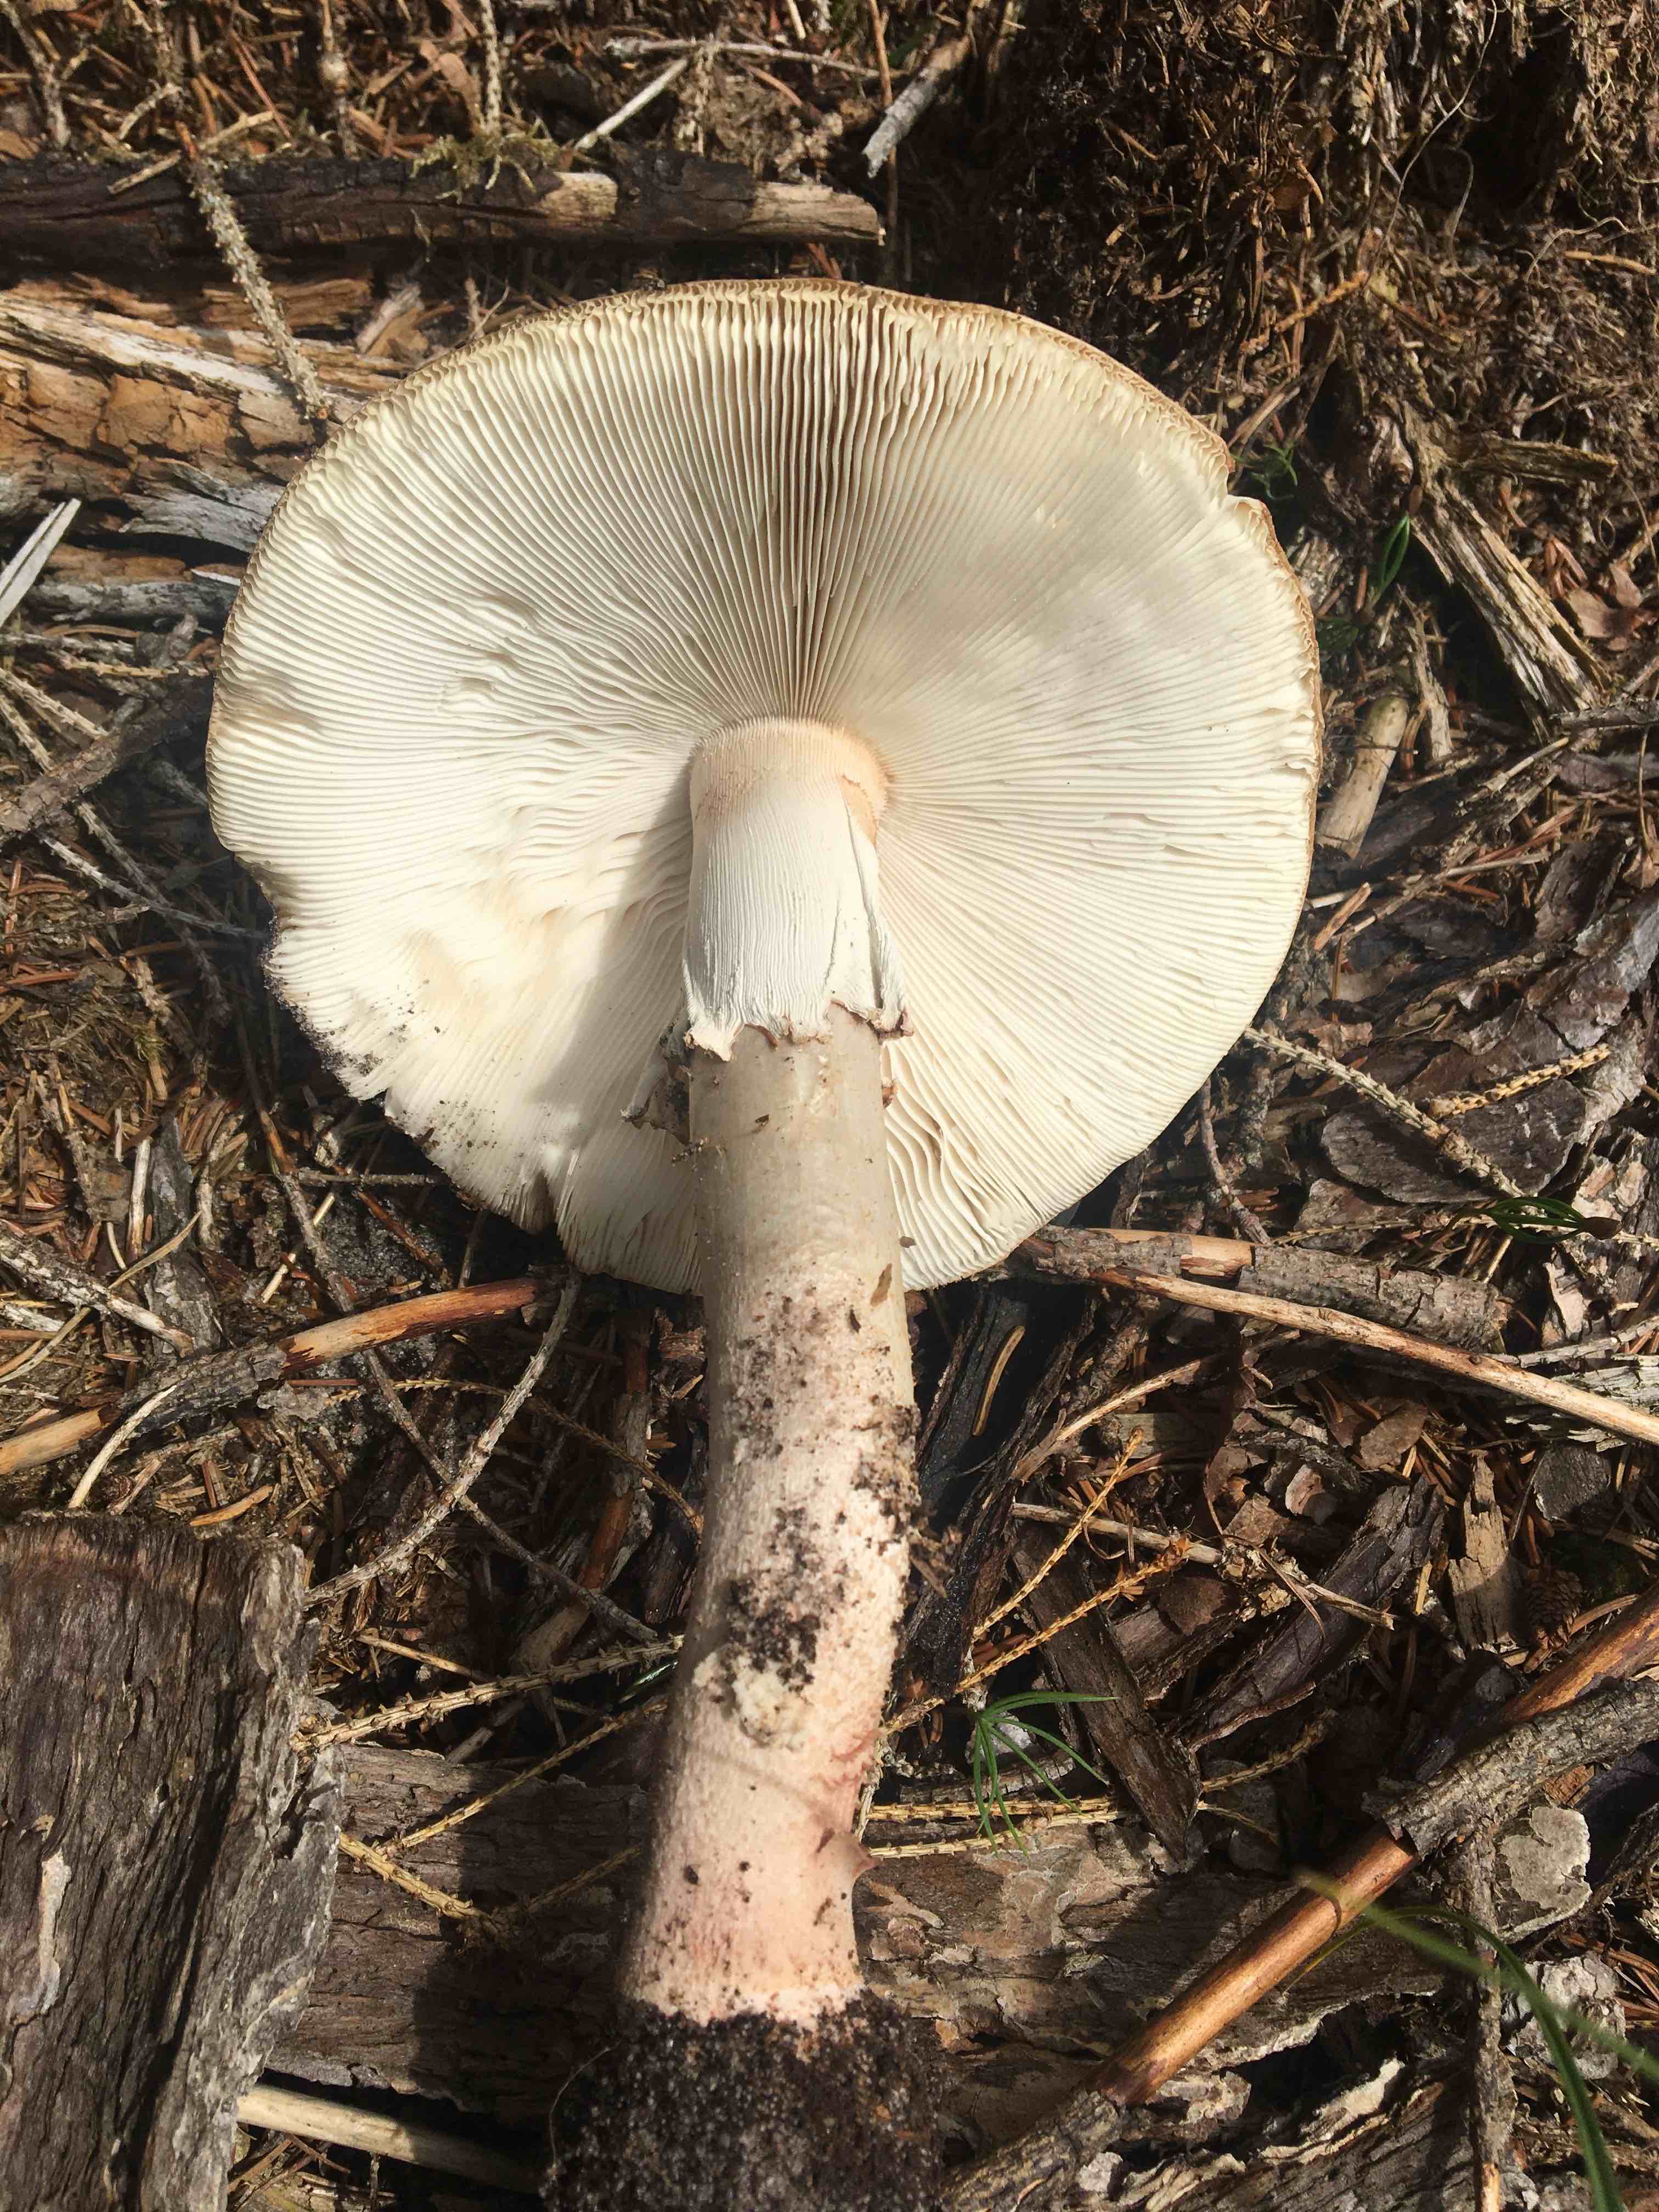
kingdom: Fungi
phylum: Basidiomycota
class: Agaricomycetes
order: Agaricales
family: Amanitaceae
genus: Amanita
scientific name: Amanita rubescens
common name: rødmende fluesvamp
